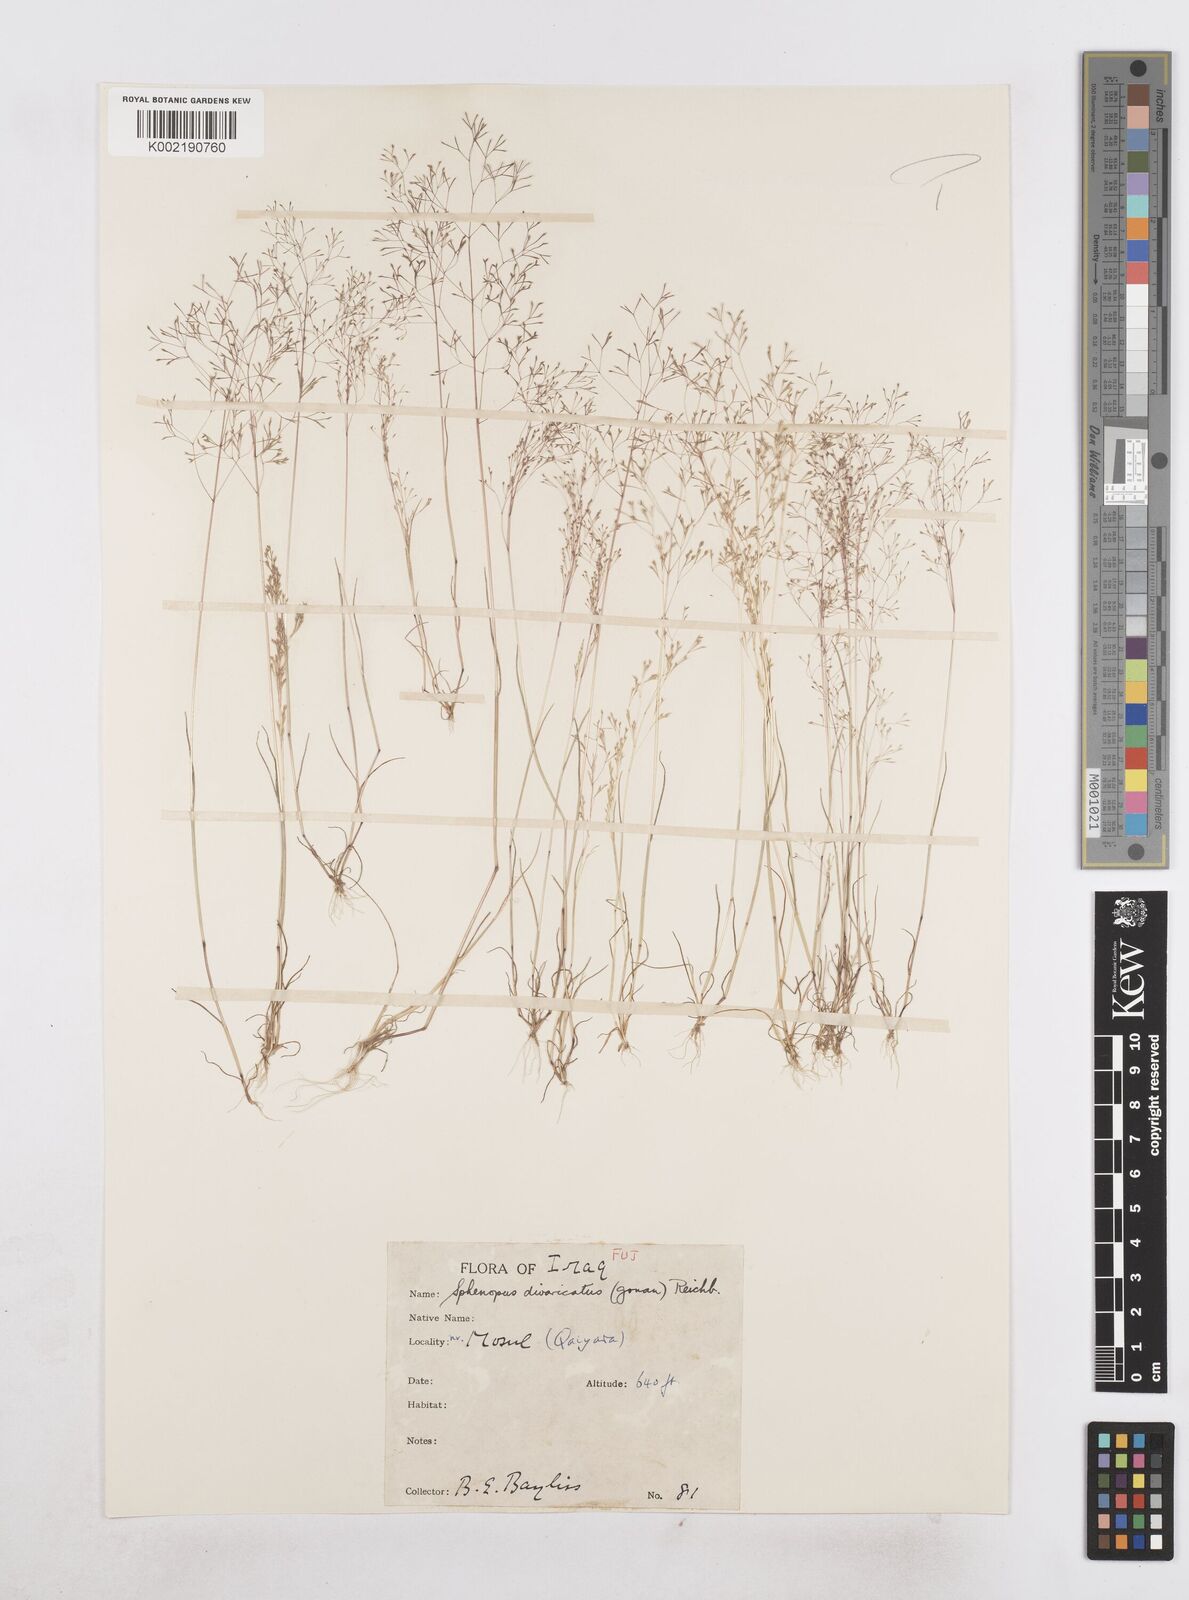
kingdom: Plantae
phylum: Tracheophyta
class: Liliopsida
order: Poales
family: Poaceae
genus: Sphenopus
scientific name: Sphenopus divaricatus
